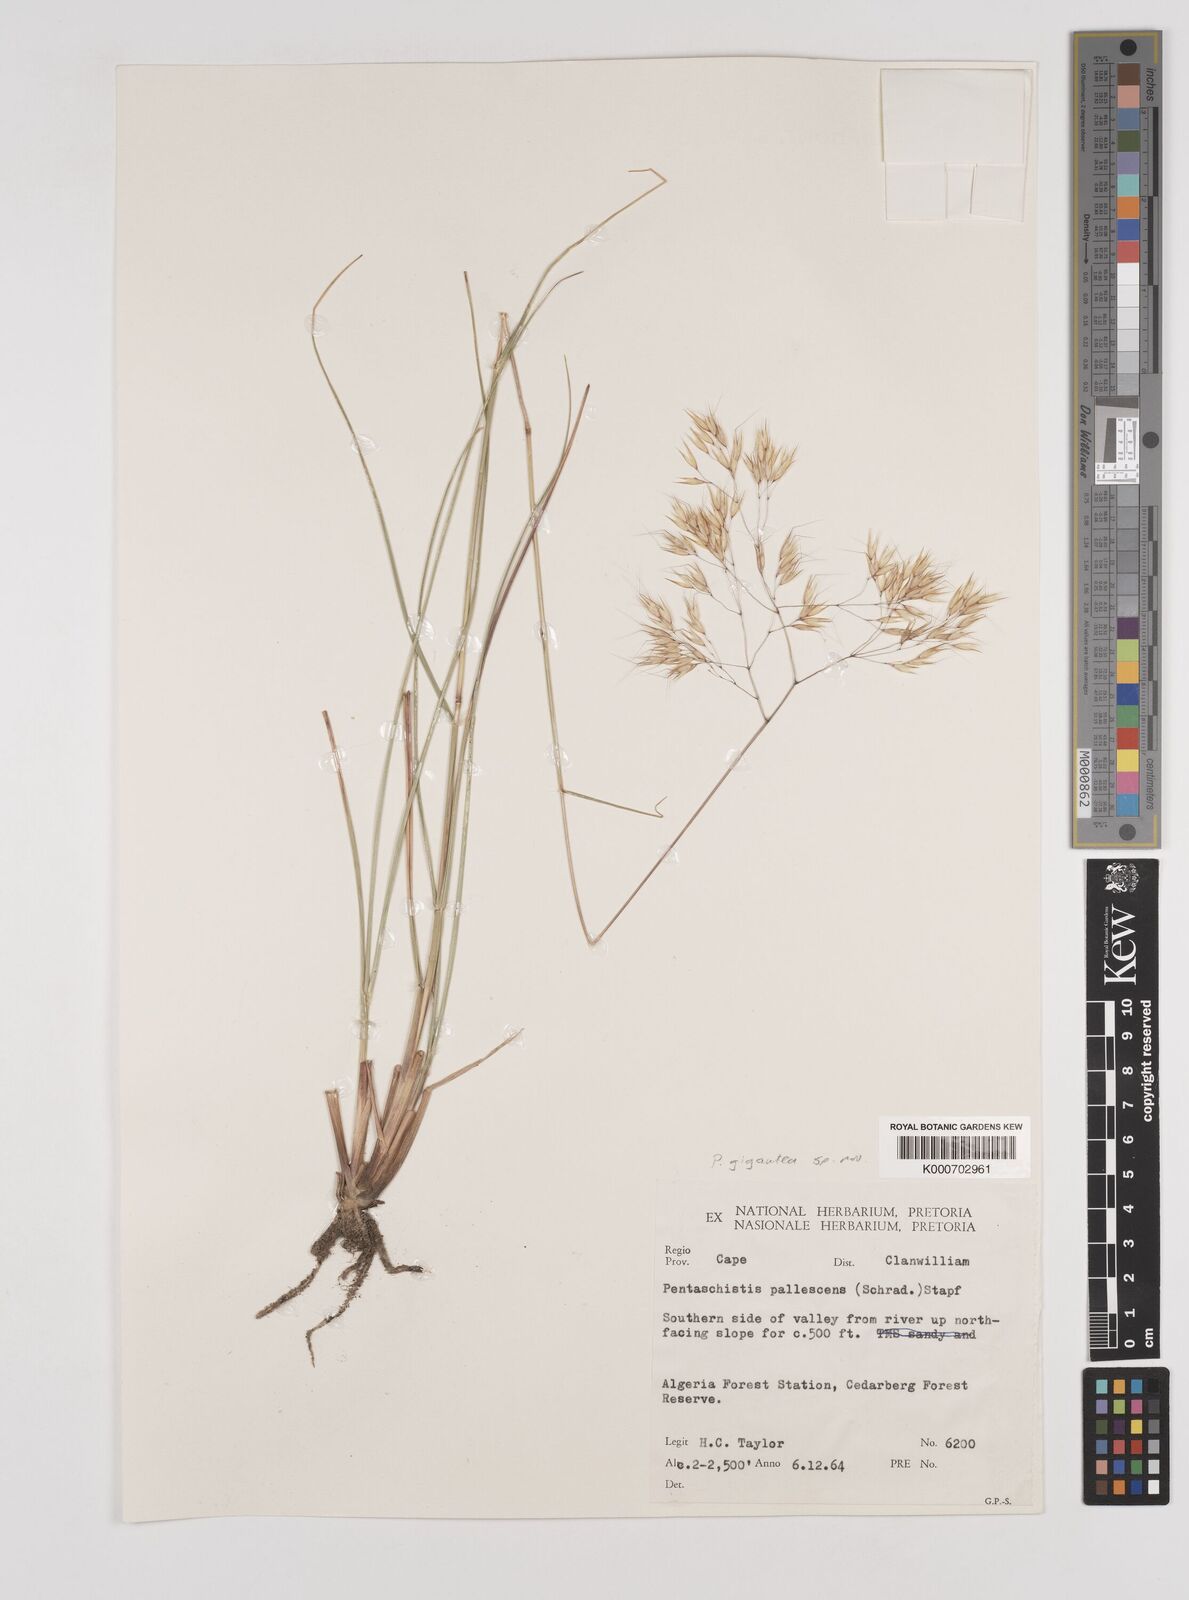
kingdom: Plantae
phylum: Tracheophyta
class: Liliopsida
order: Poales
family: Poaceae
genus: Pentameris
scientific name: Pentameris rupestris
